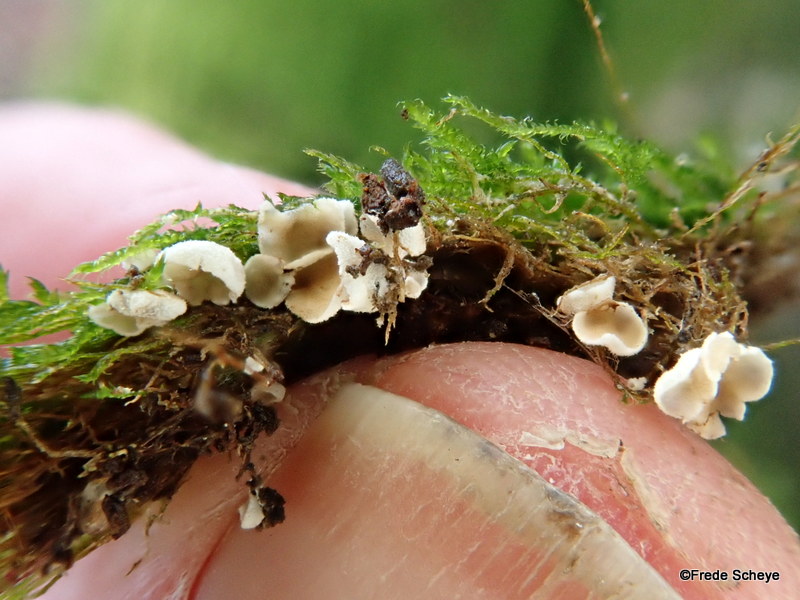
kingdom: Fungi
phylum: Basidiomycota
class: Agaricomycetes
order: Agaricales
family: Chromocyphellaceae
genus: Chromocyphella
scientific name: Chromocyphella muscicola
